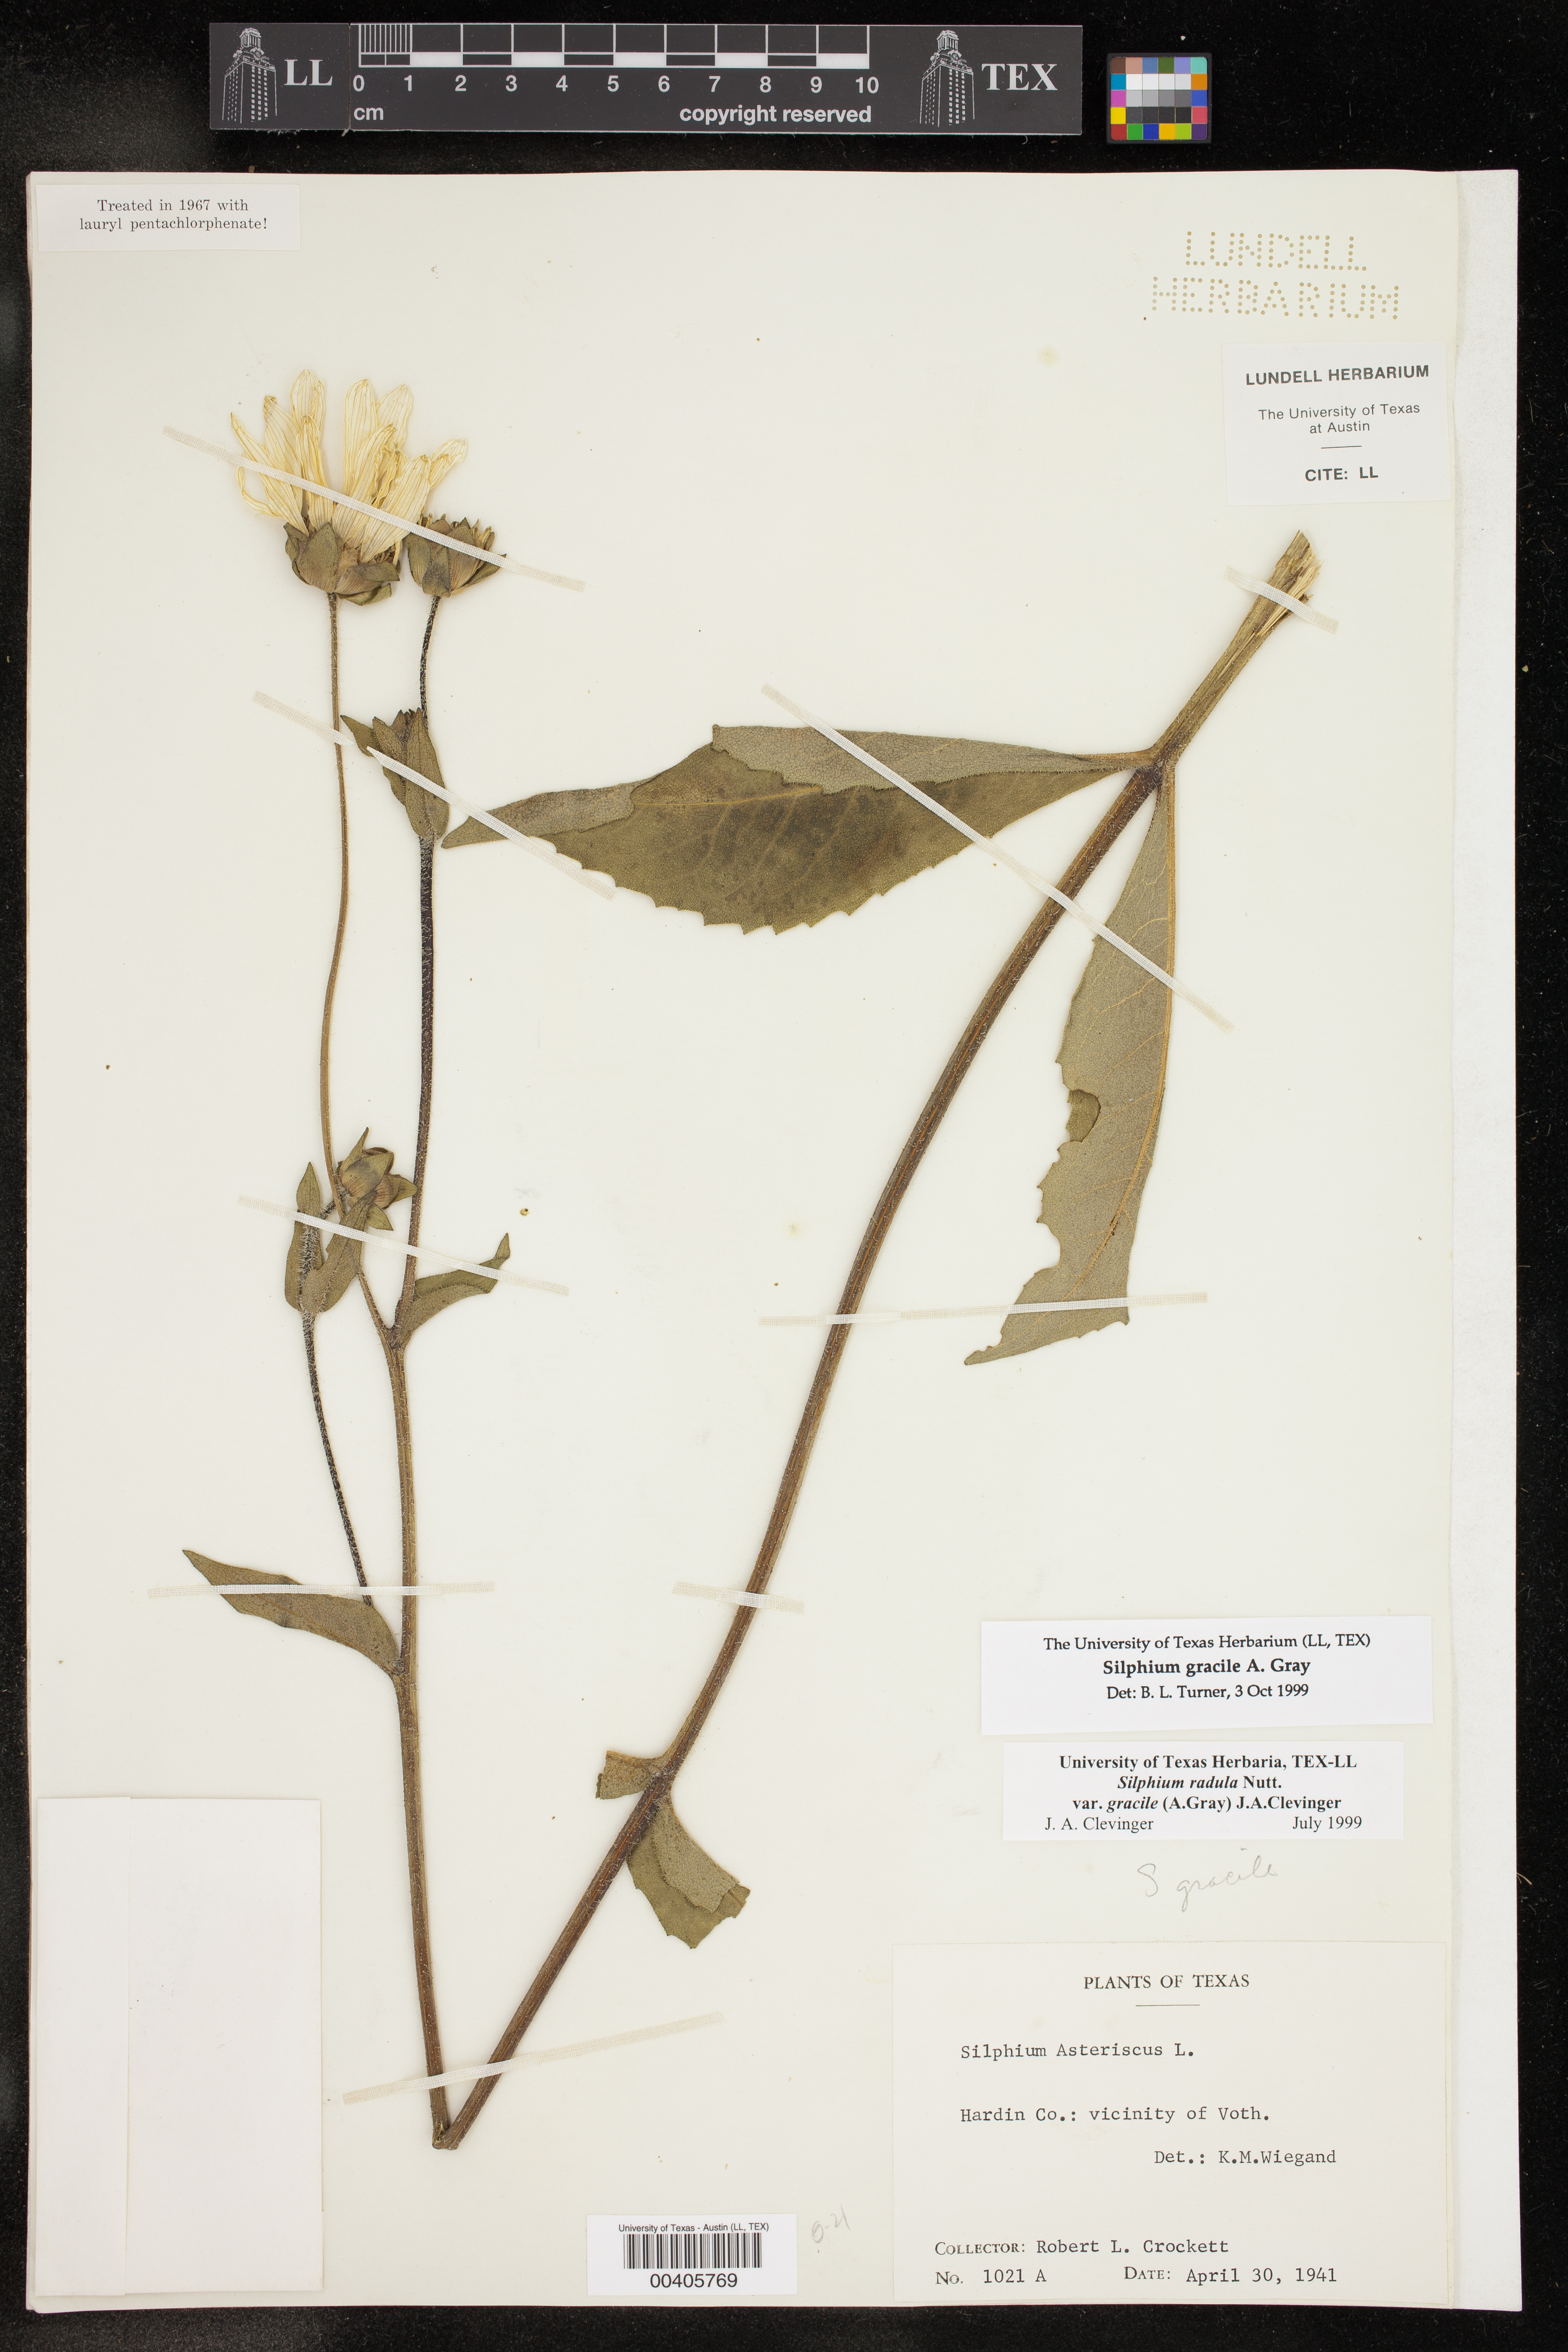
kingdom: Plantae
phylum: Tracheophyta
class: Magnoliopsida
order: Asterales
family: Asteraceae
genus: Silphium
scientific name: Silphium radula
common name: Roughleaf rosinweed
